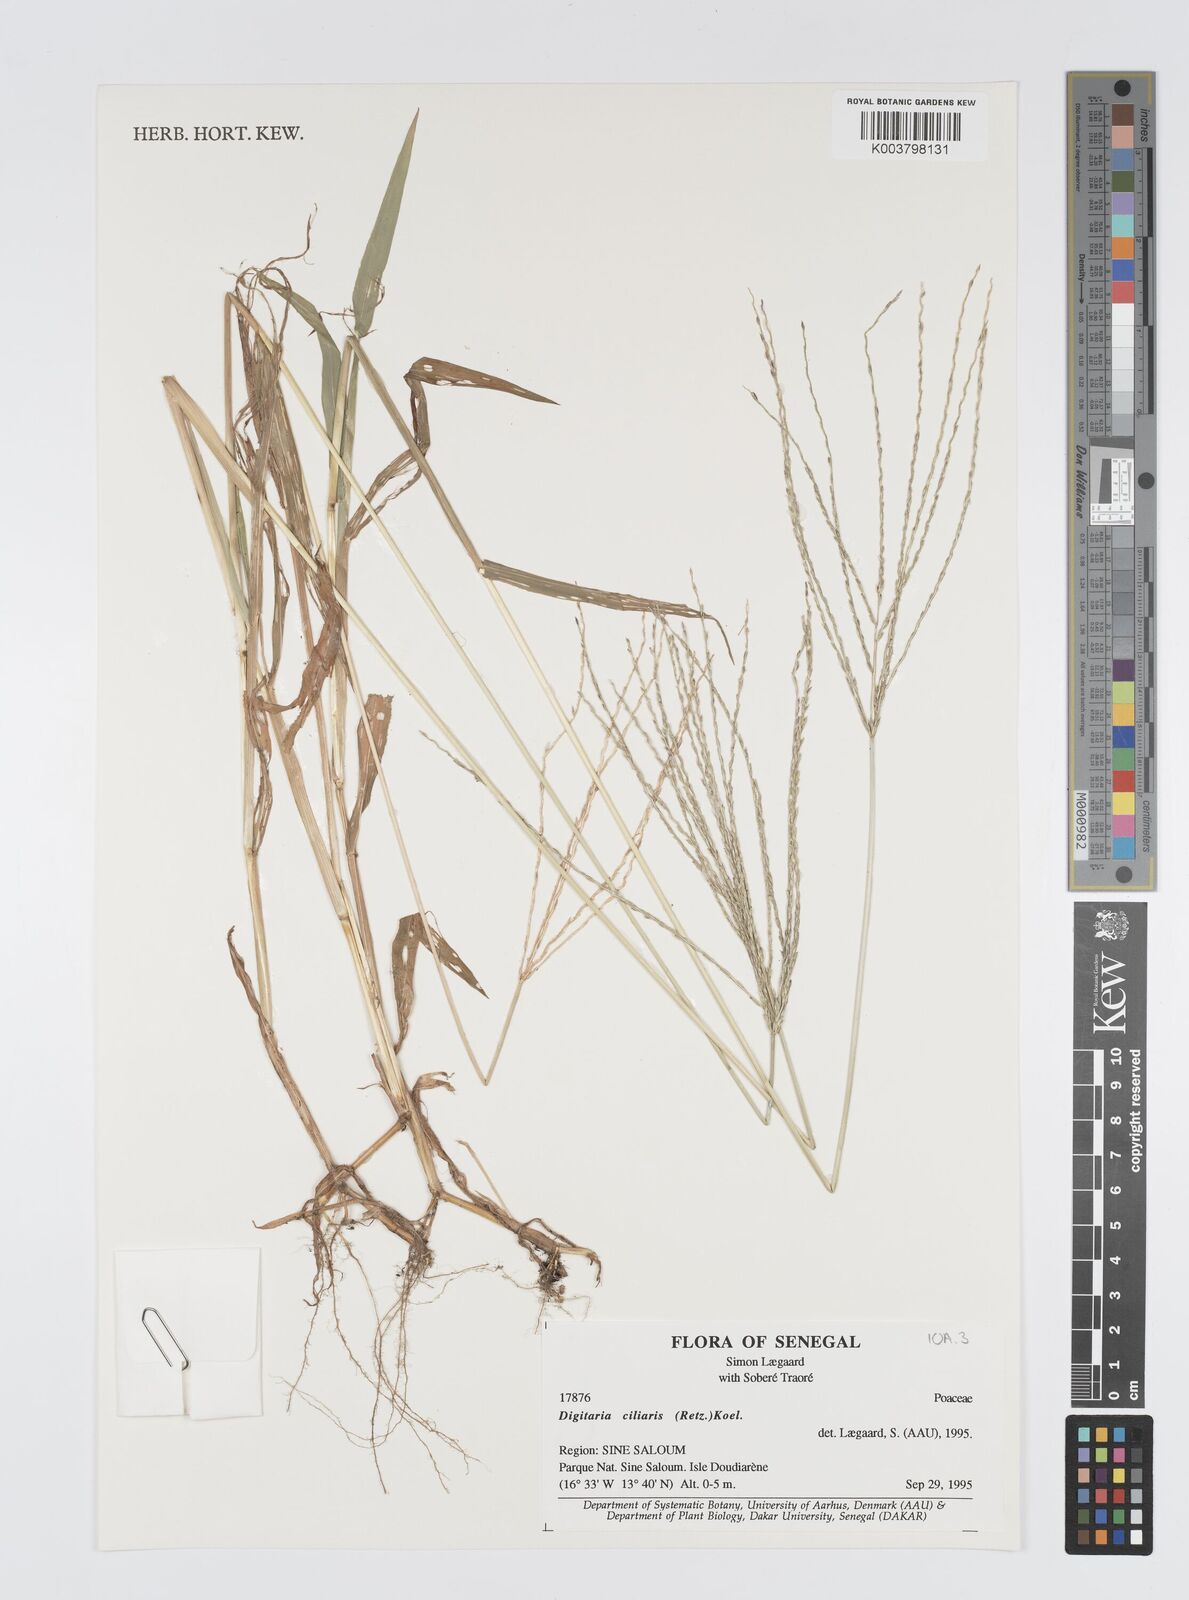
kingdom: Plantae
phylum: Tracheophyta
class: Liliopsida
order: Poales
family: Poaceae
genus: Digitaria
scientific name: Digitaria
